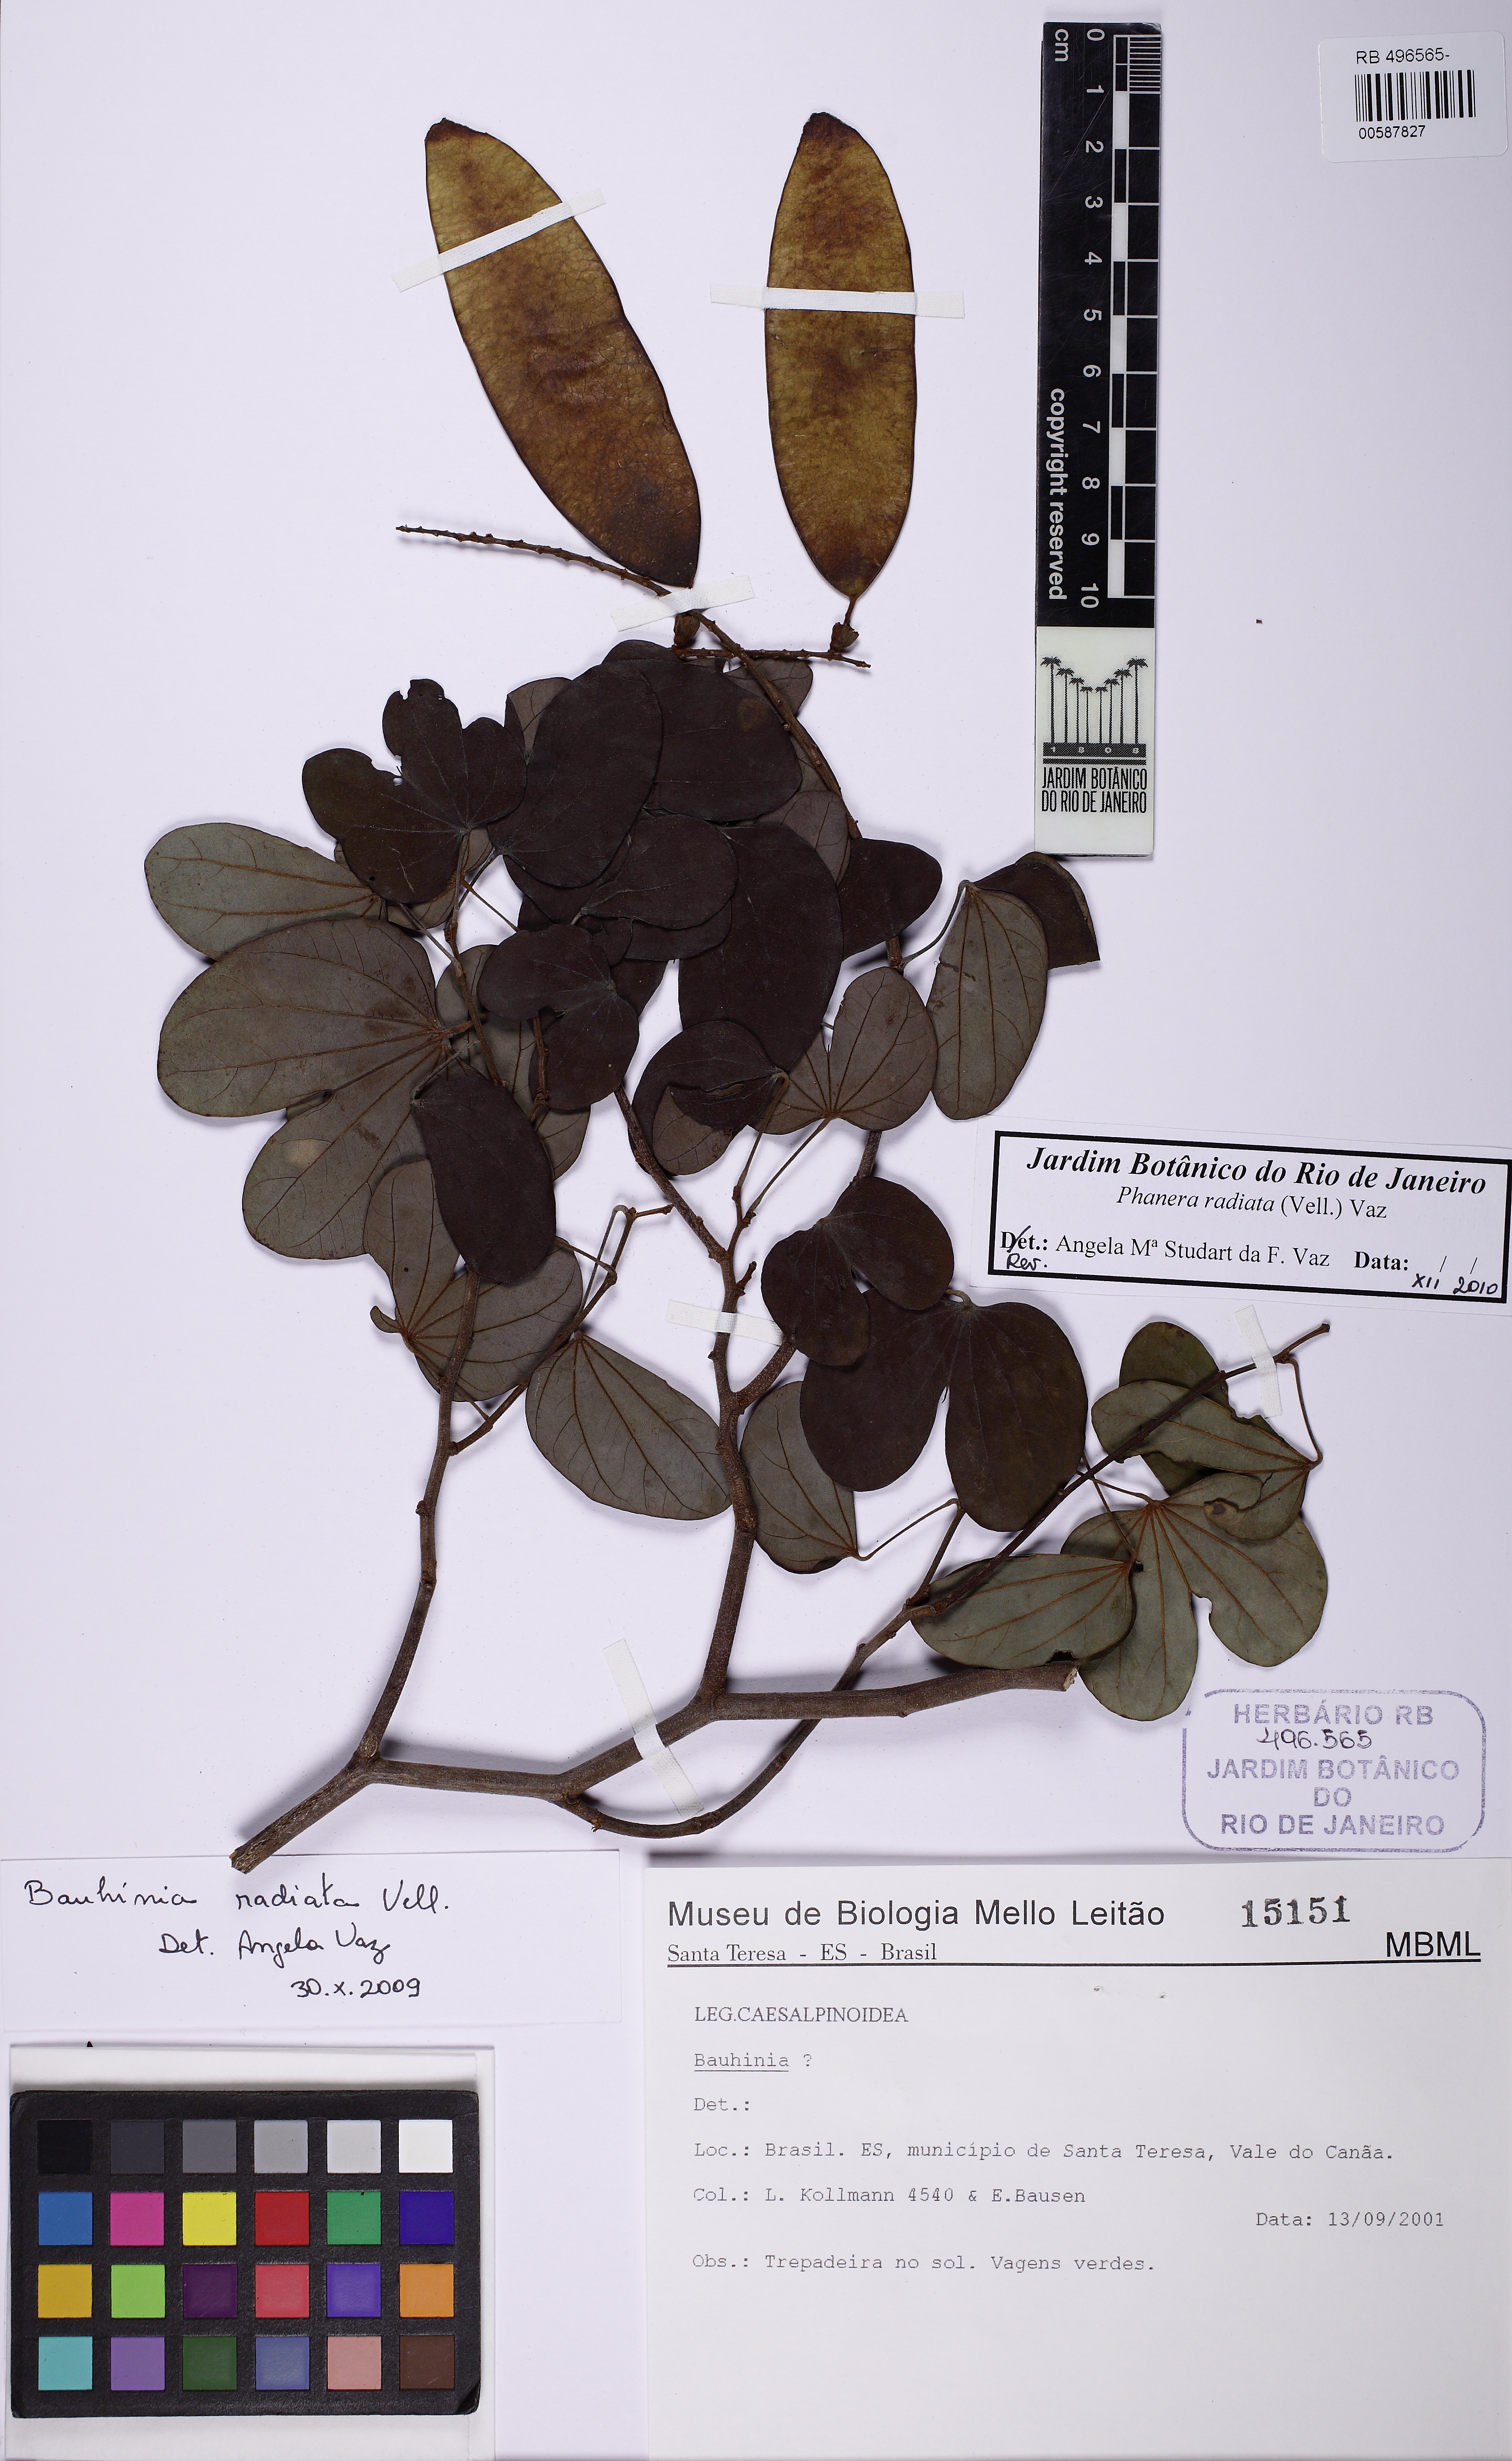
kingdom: Plantae
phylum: Tracheophyta
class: Magnoliopsida
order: Fabales
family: Fabaceae
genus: Schnella
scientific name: Schnella macrostachya
